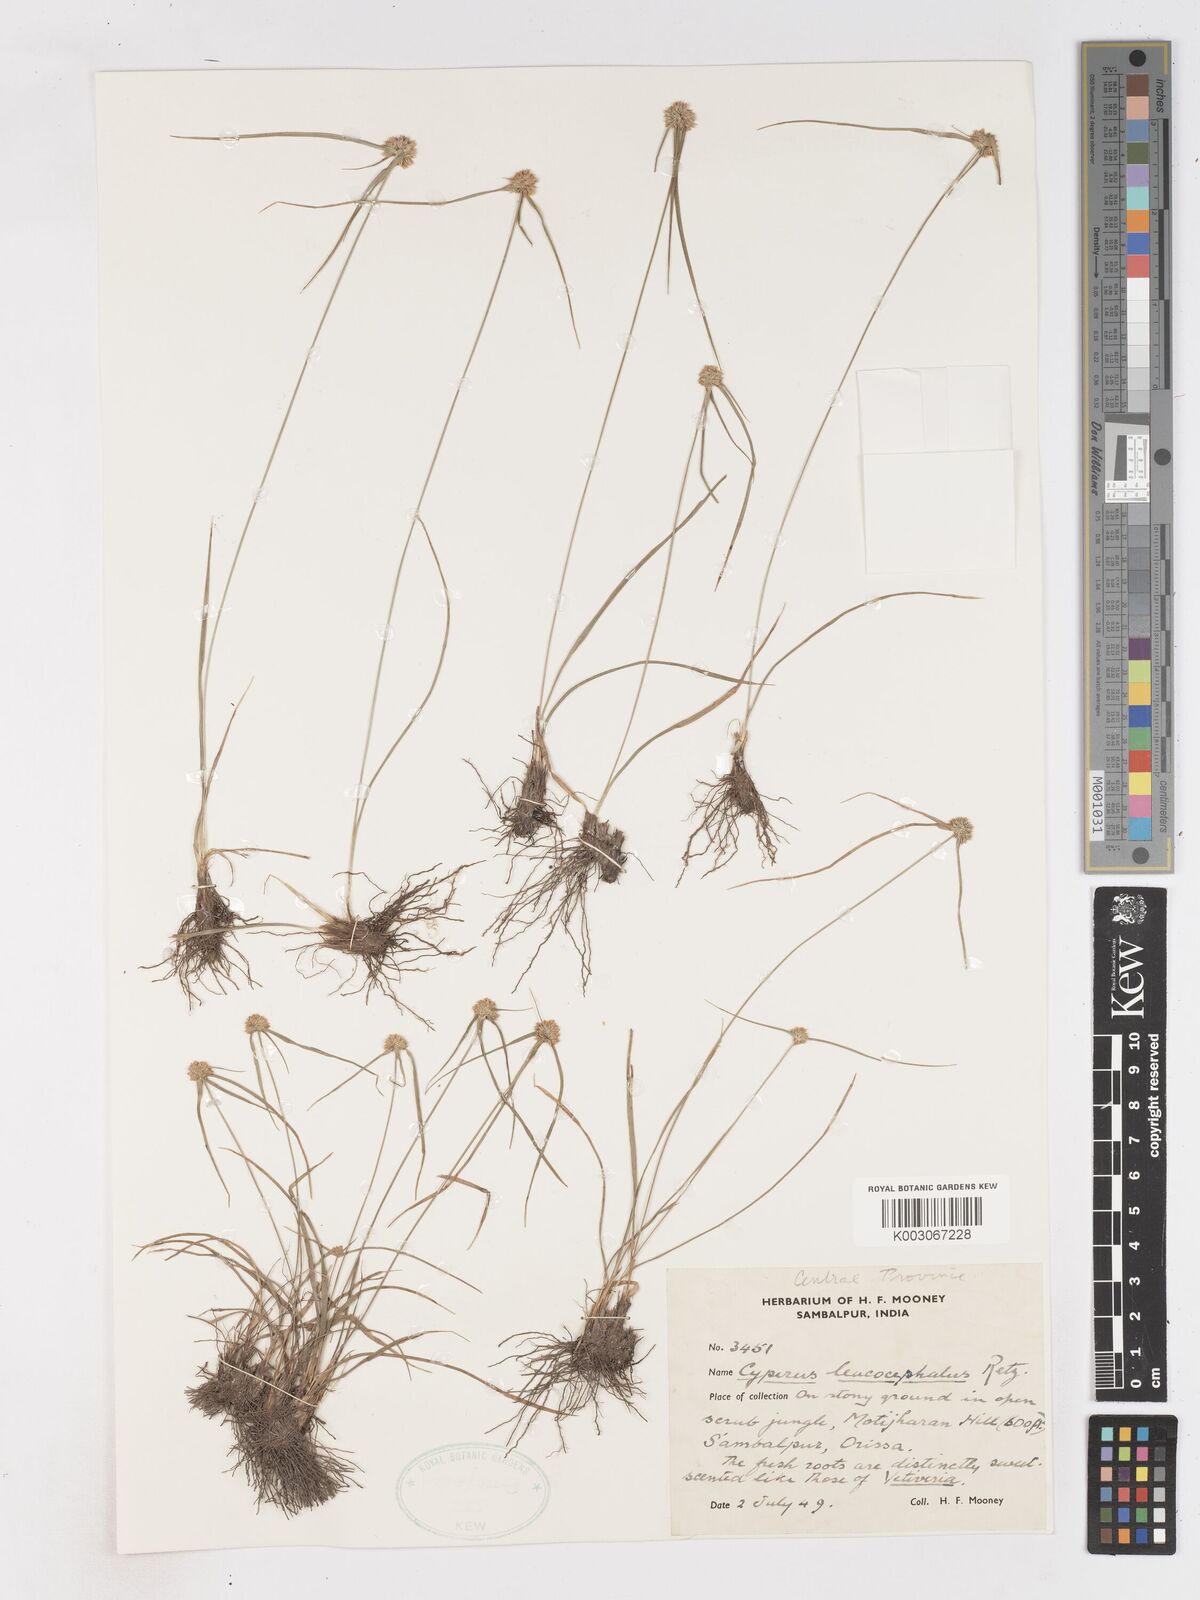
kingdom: Plantae
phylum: Tracheophyta
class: Liliopsida
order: Poales
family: Cyperaceae
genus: Cyperus
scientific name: Cyperus leucocephalus
